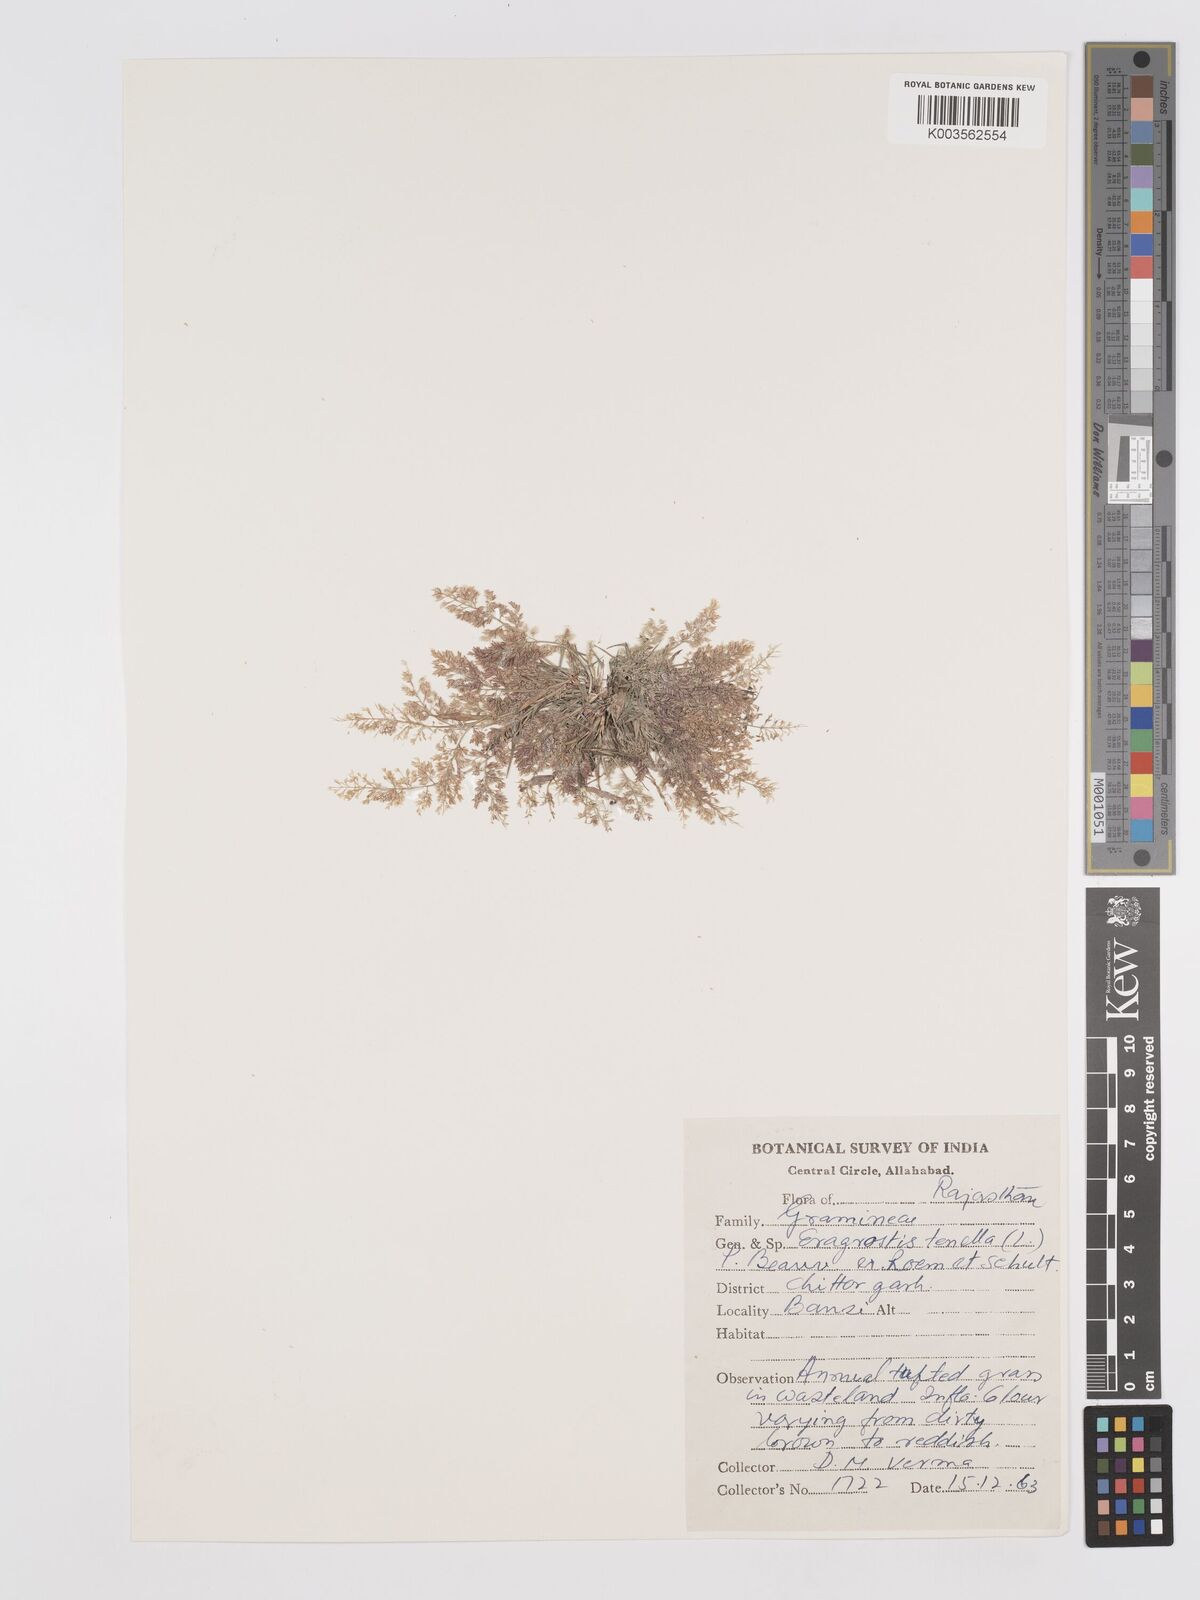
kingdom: Plantae
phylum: Tracheophyta
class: Liliopsida
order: Poales
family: Poaceae
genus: Eragrostis
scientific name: Eragrostis tenella
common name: Japanese lovegrass
